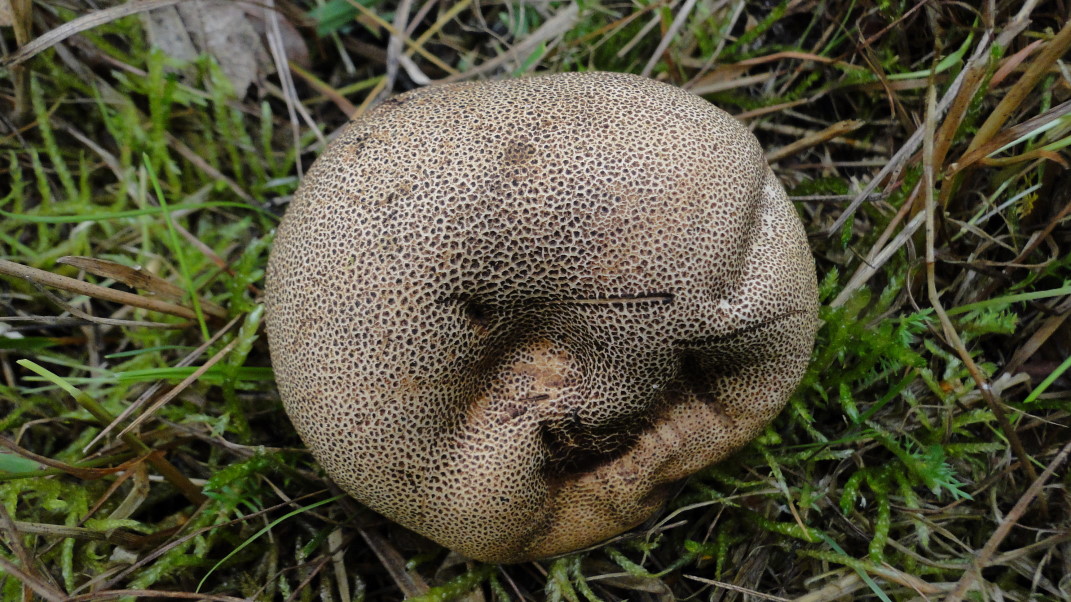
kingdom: Fungi
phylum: Basidiomycota
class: Agaricomycetes
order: Boletales
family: Sclerodermataceae
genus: Scleroderma
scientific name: Scleroderma areolatum
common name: plettet bruskbold
